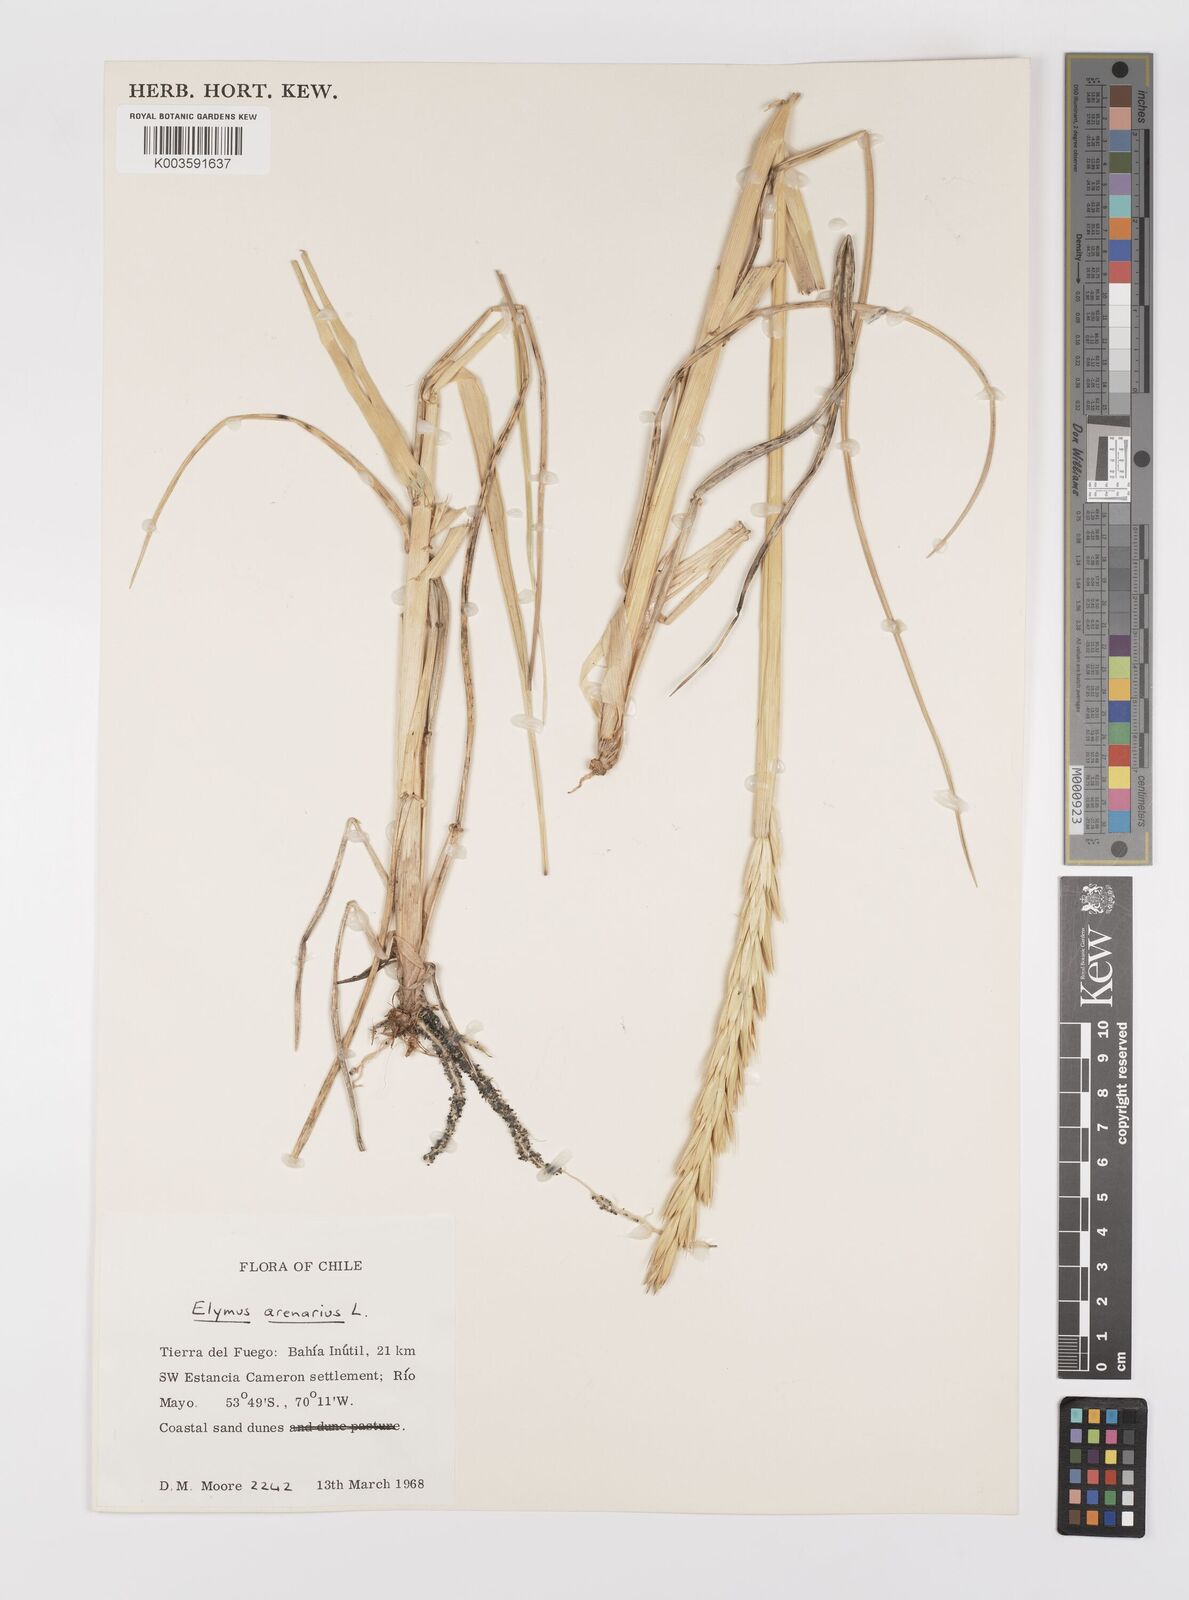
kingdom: Plantae
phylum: Tracheophyta
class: Liliopsida
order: Poales
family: Poaceae
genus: Leymus
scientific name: Leymus arenarius
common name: Lyme-grass
